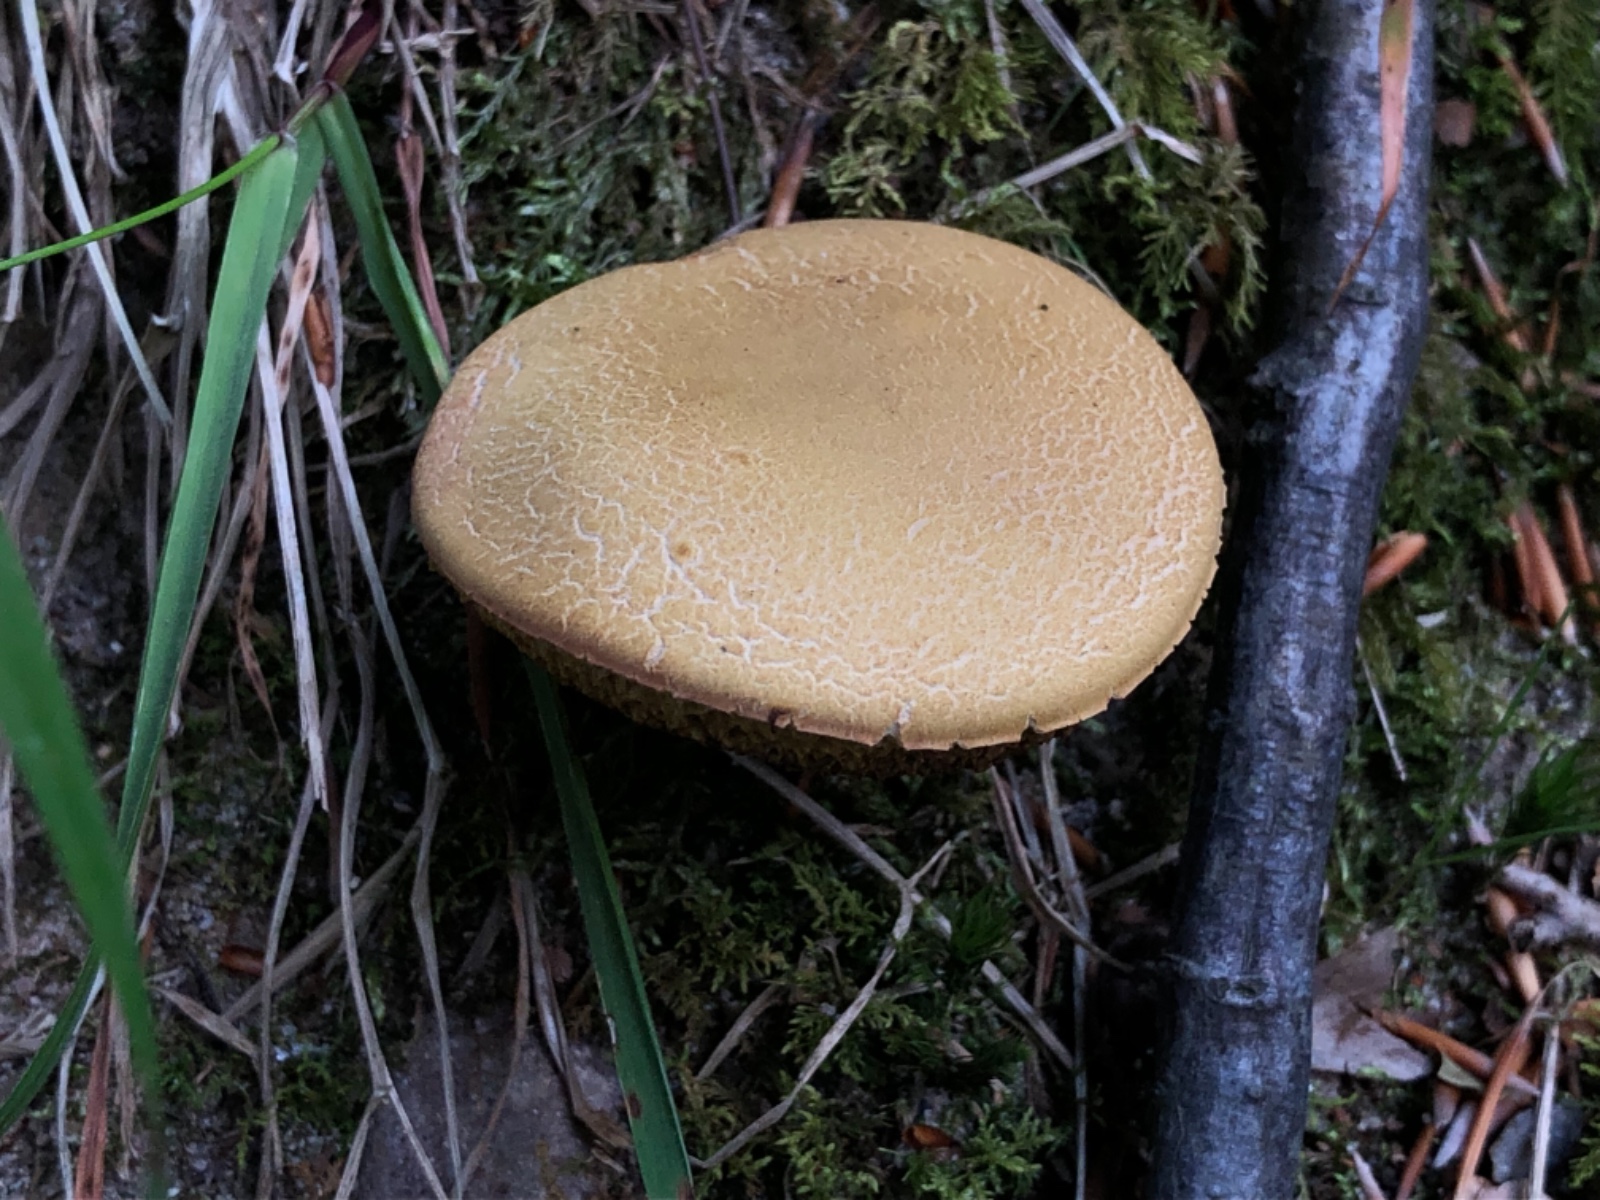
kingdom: Fungi
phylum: Basidiomycota
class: Agaricomycetes
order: Boletales
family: Boletaceae
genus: Xerocomus
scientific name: Xerocomus
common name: filtrørhat
